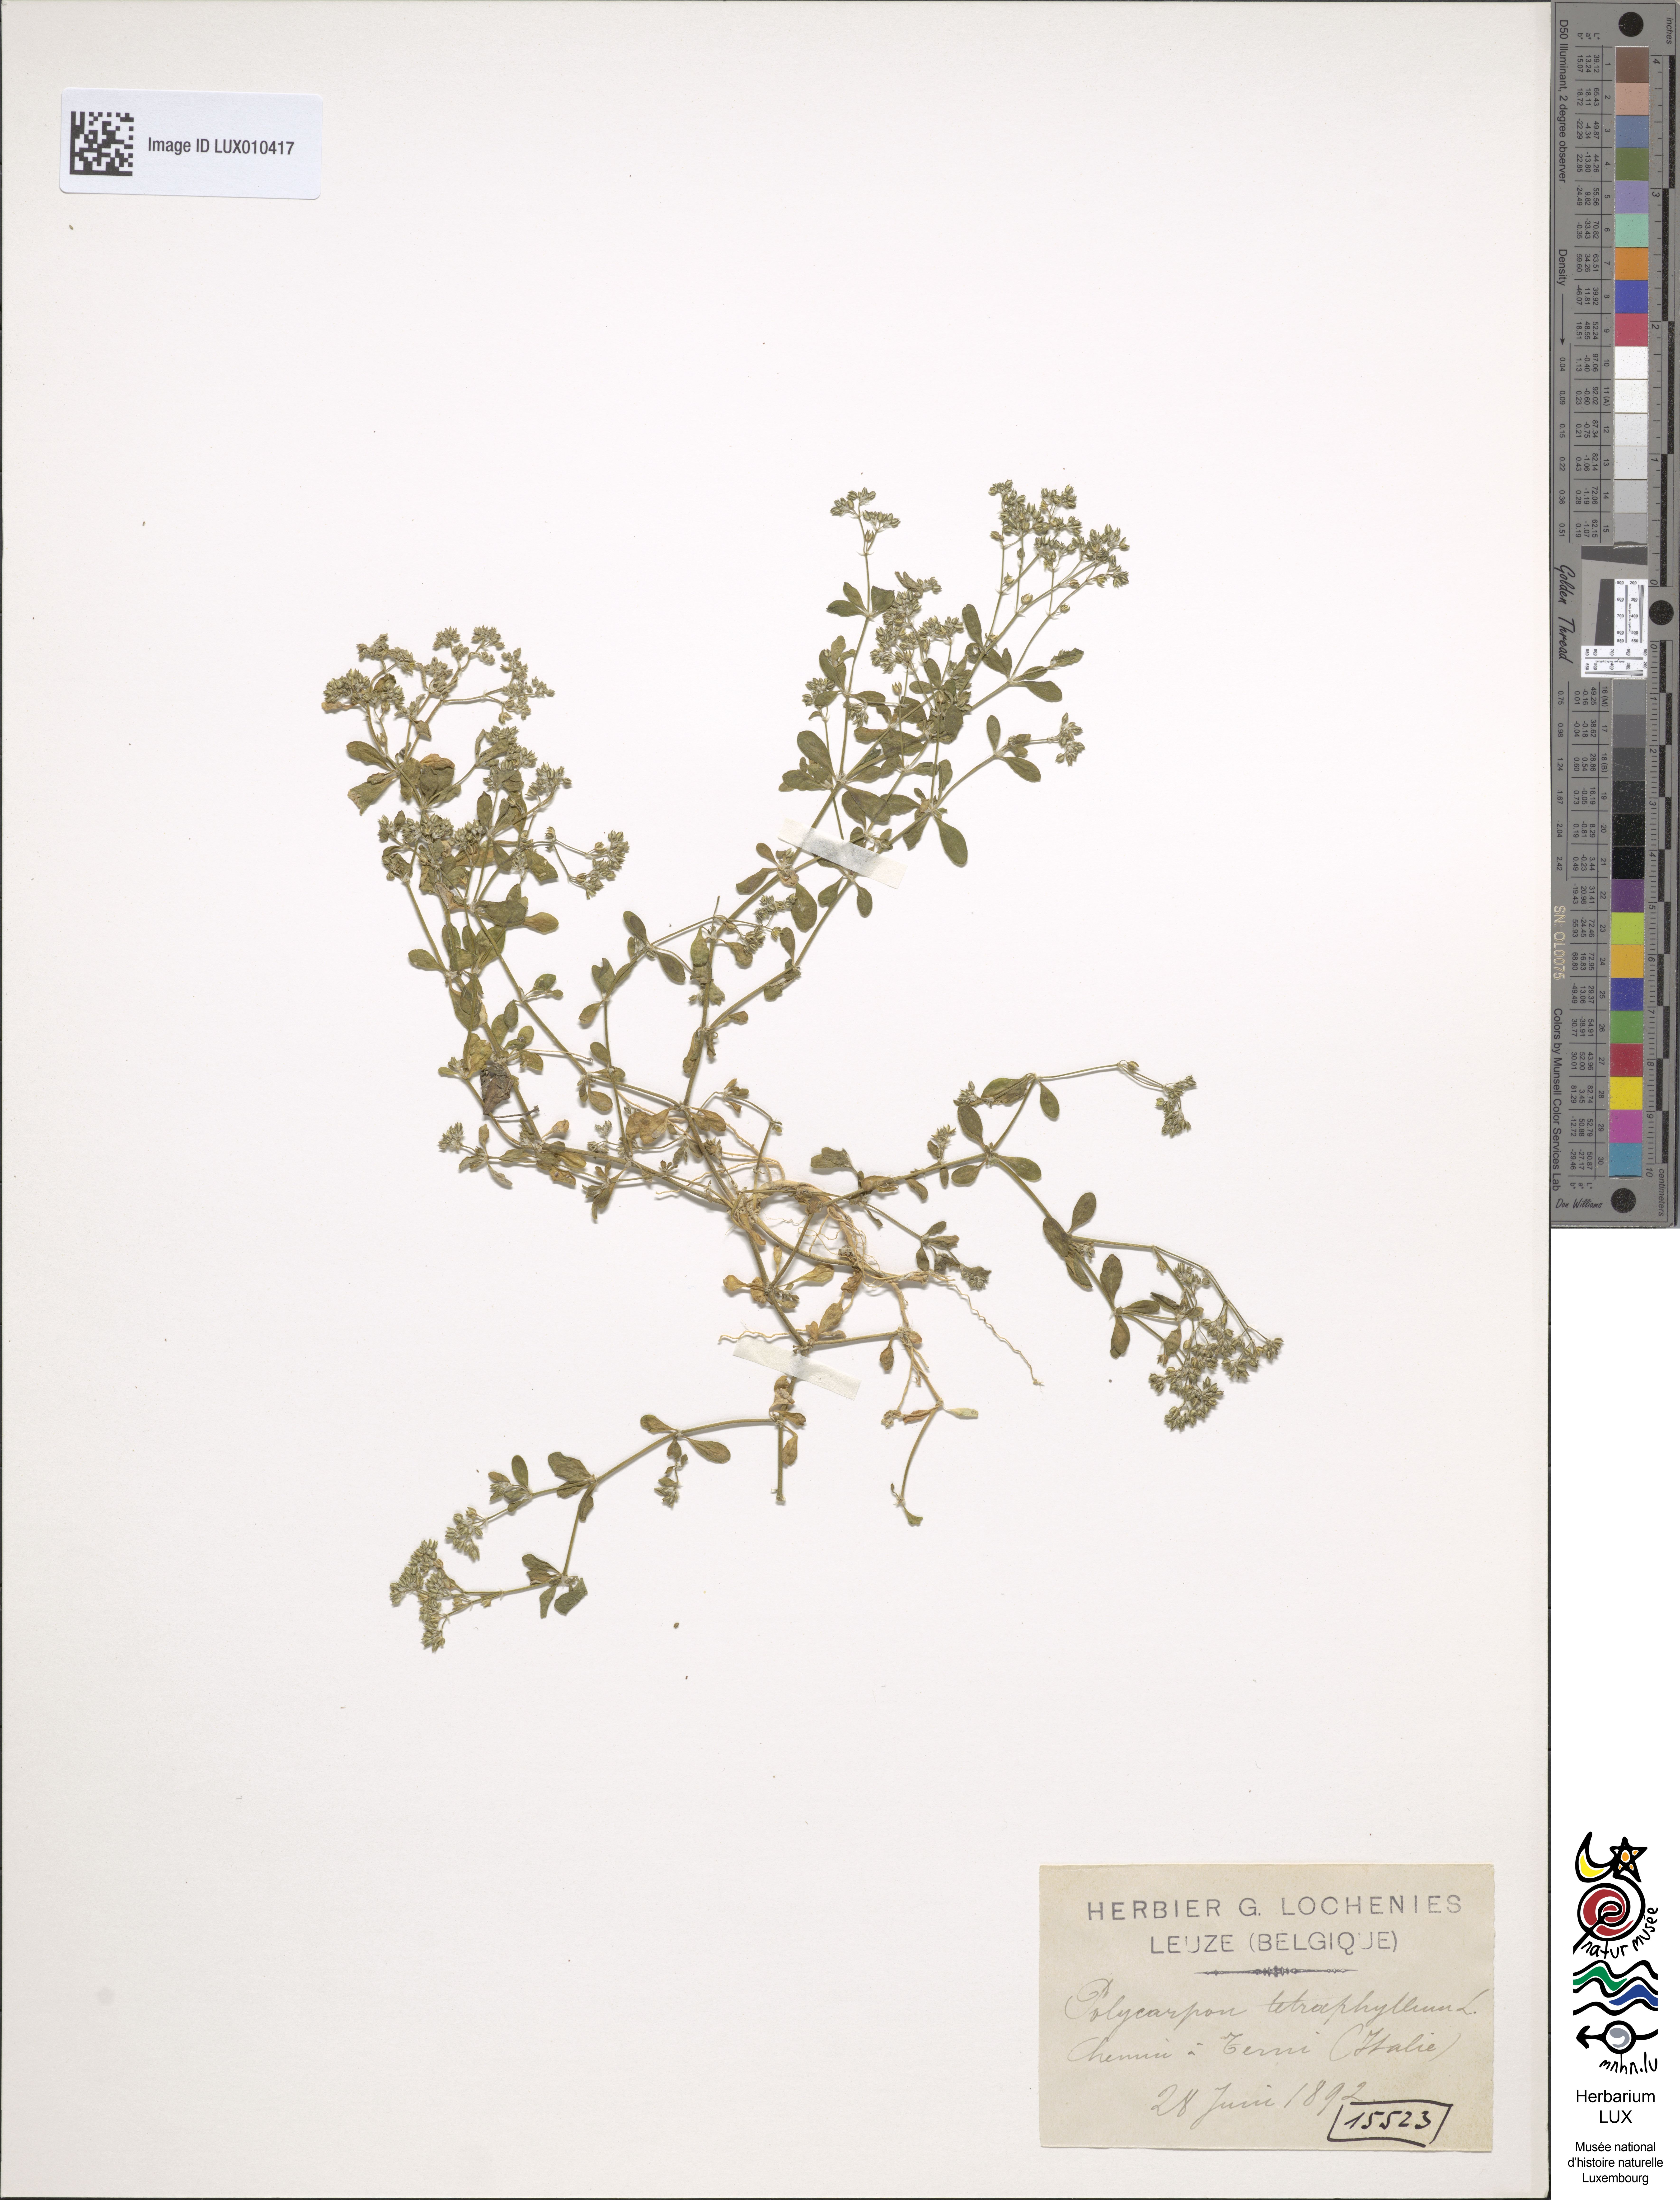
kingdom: Plantae
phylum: Tracheophyta
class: Magnoliopsida
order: Caryophyllales
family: Caryophyllaceae
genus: Polycarpon
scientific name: Polycarpon tetraphyllum
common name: Four-leaved all-seed
